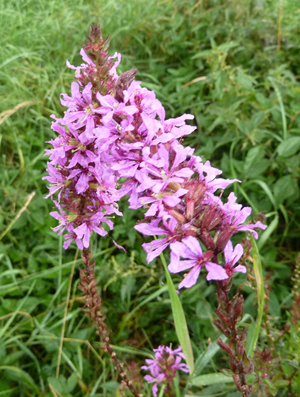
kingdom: Plantae
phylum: Tracheophyta
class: Magnoliopsida
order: Myrtales
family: Lythraceae
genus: Lythrum
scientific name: Lythrum salicaria
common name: Purple loosestrife
